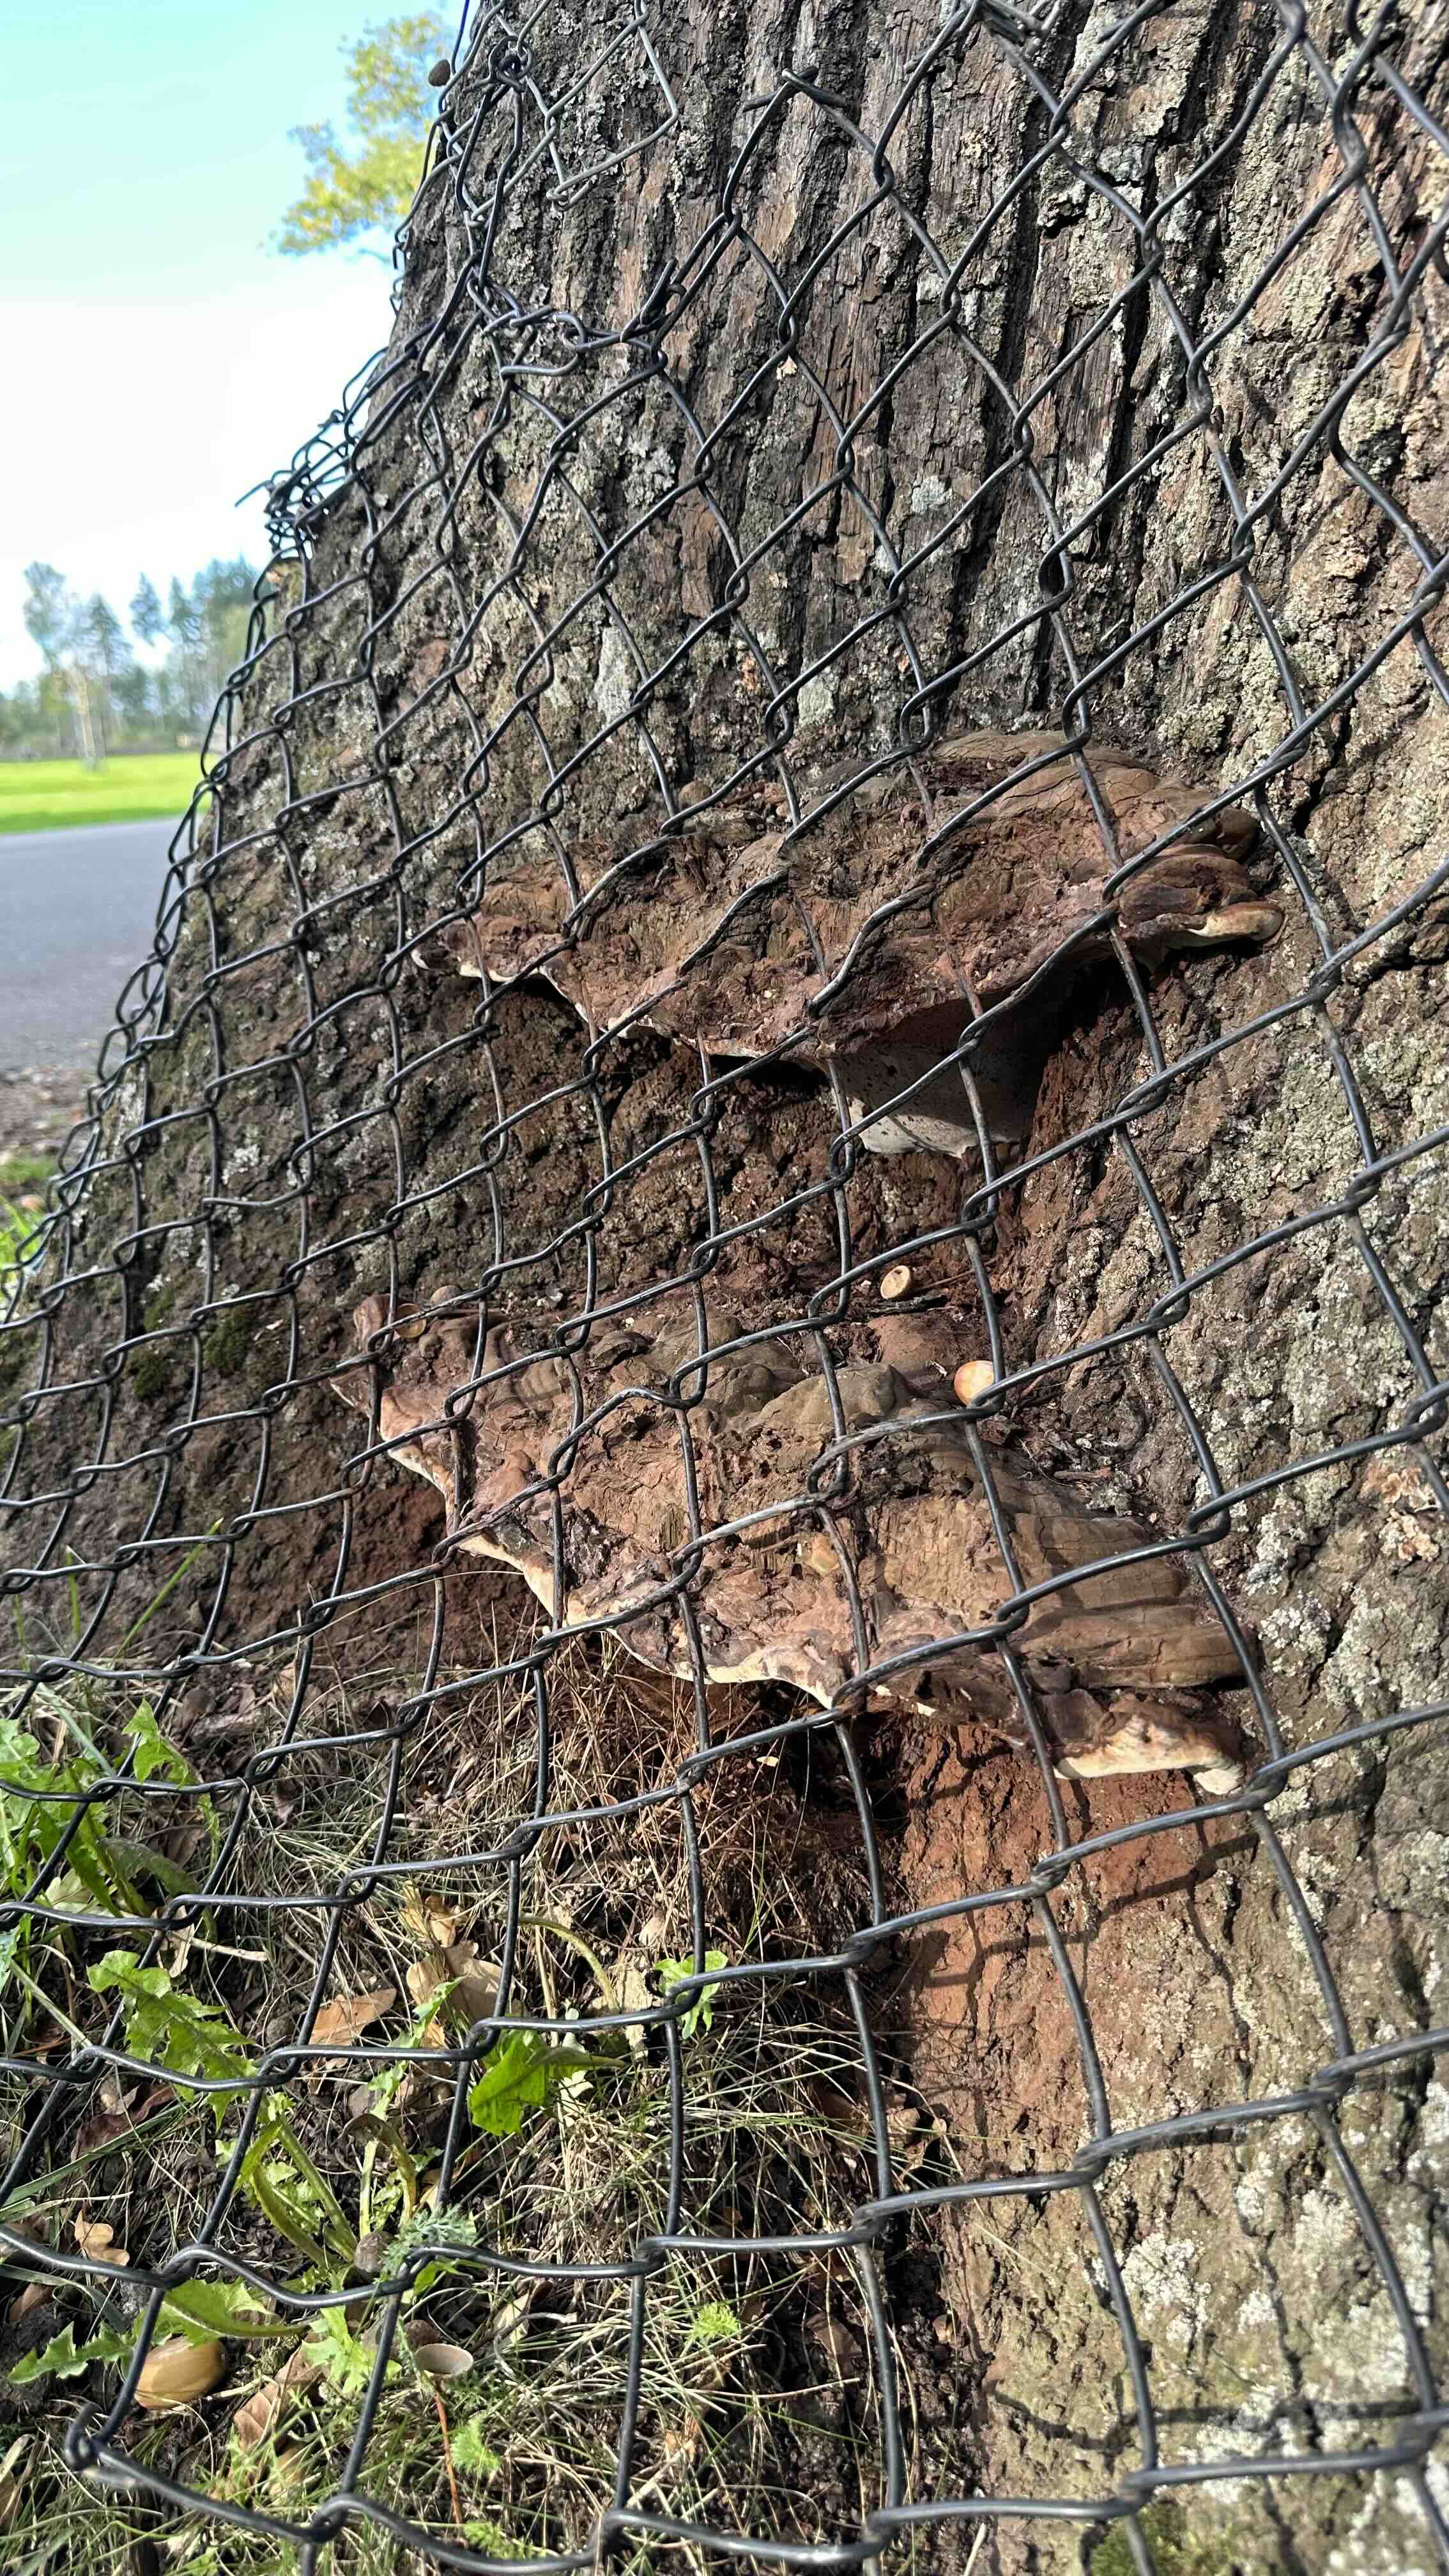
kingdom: Fungi
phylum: Basidiomycota
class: Agaricomycetes
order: Polyporales
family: Polyporaceae
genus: Ganoderma
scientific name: Ganoderma adspersum
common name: grov lakporesvamp
